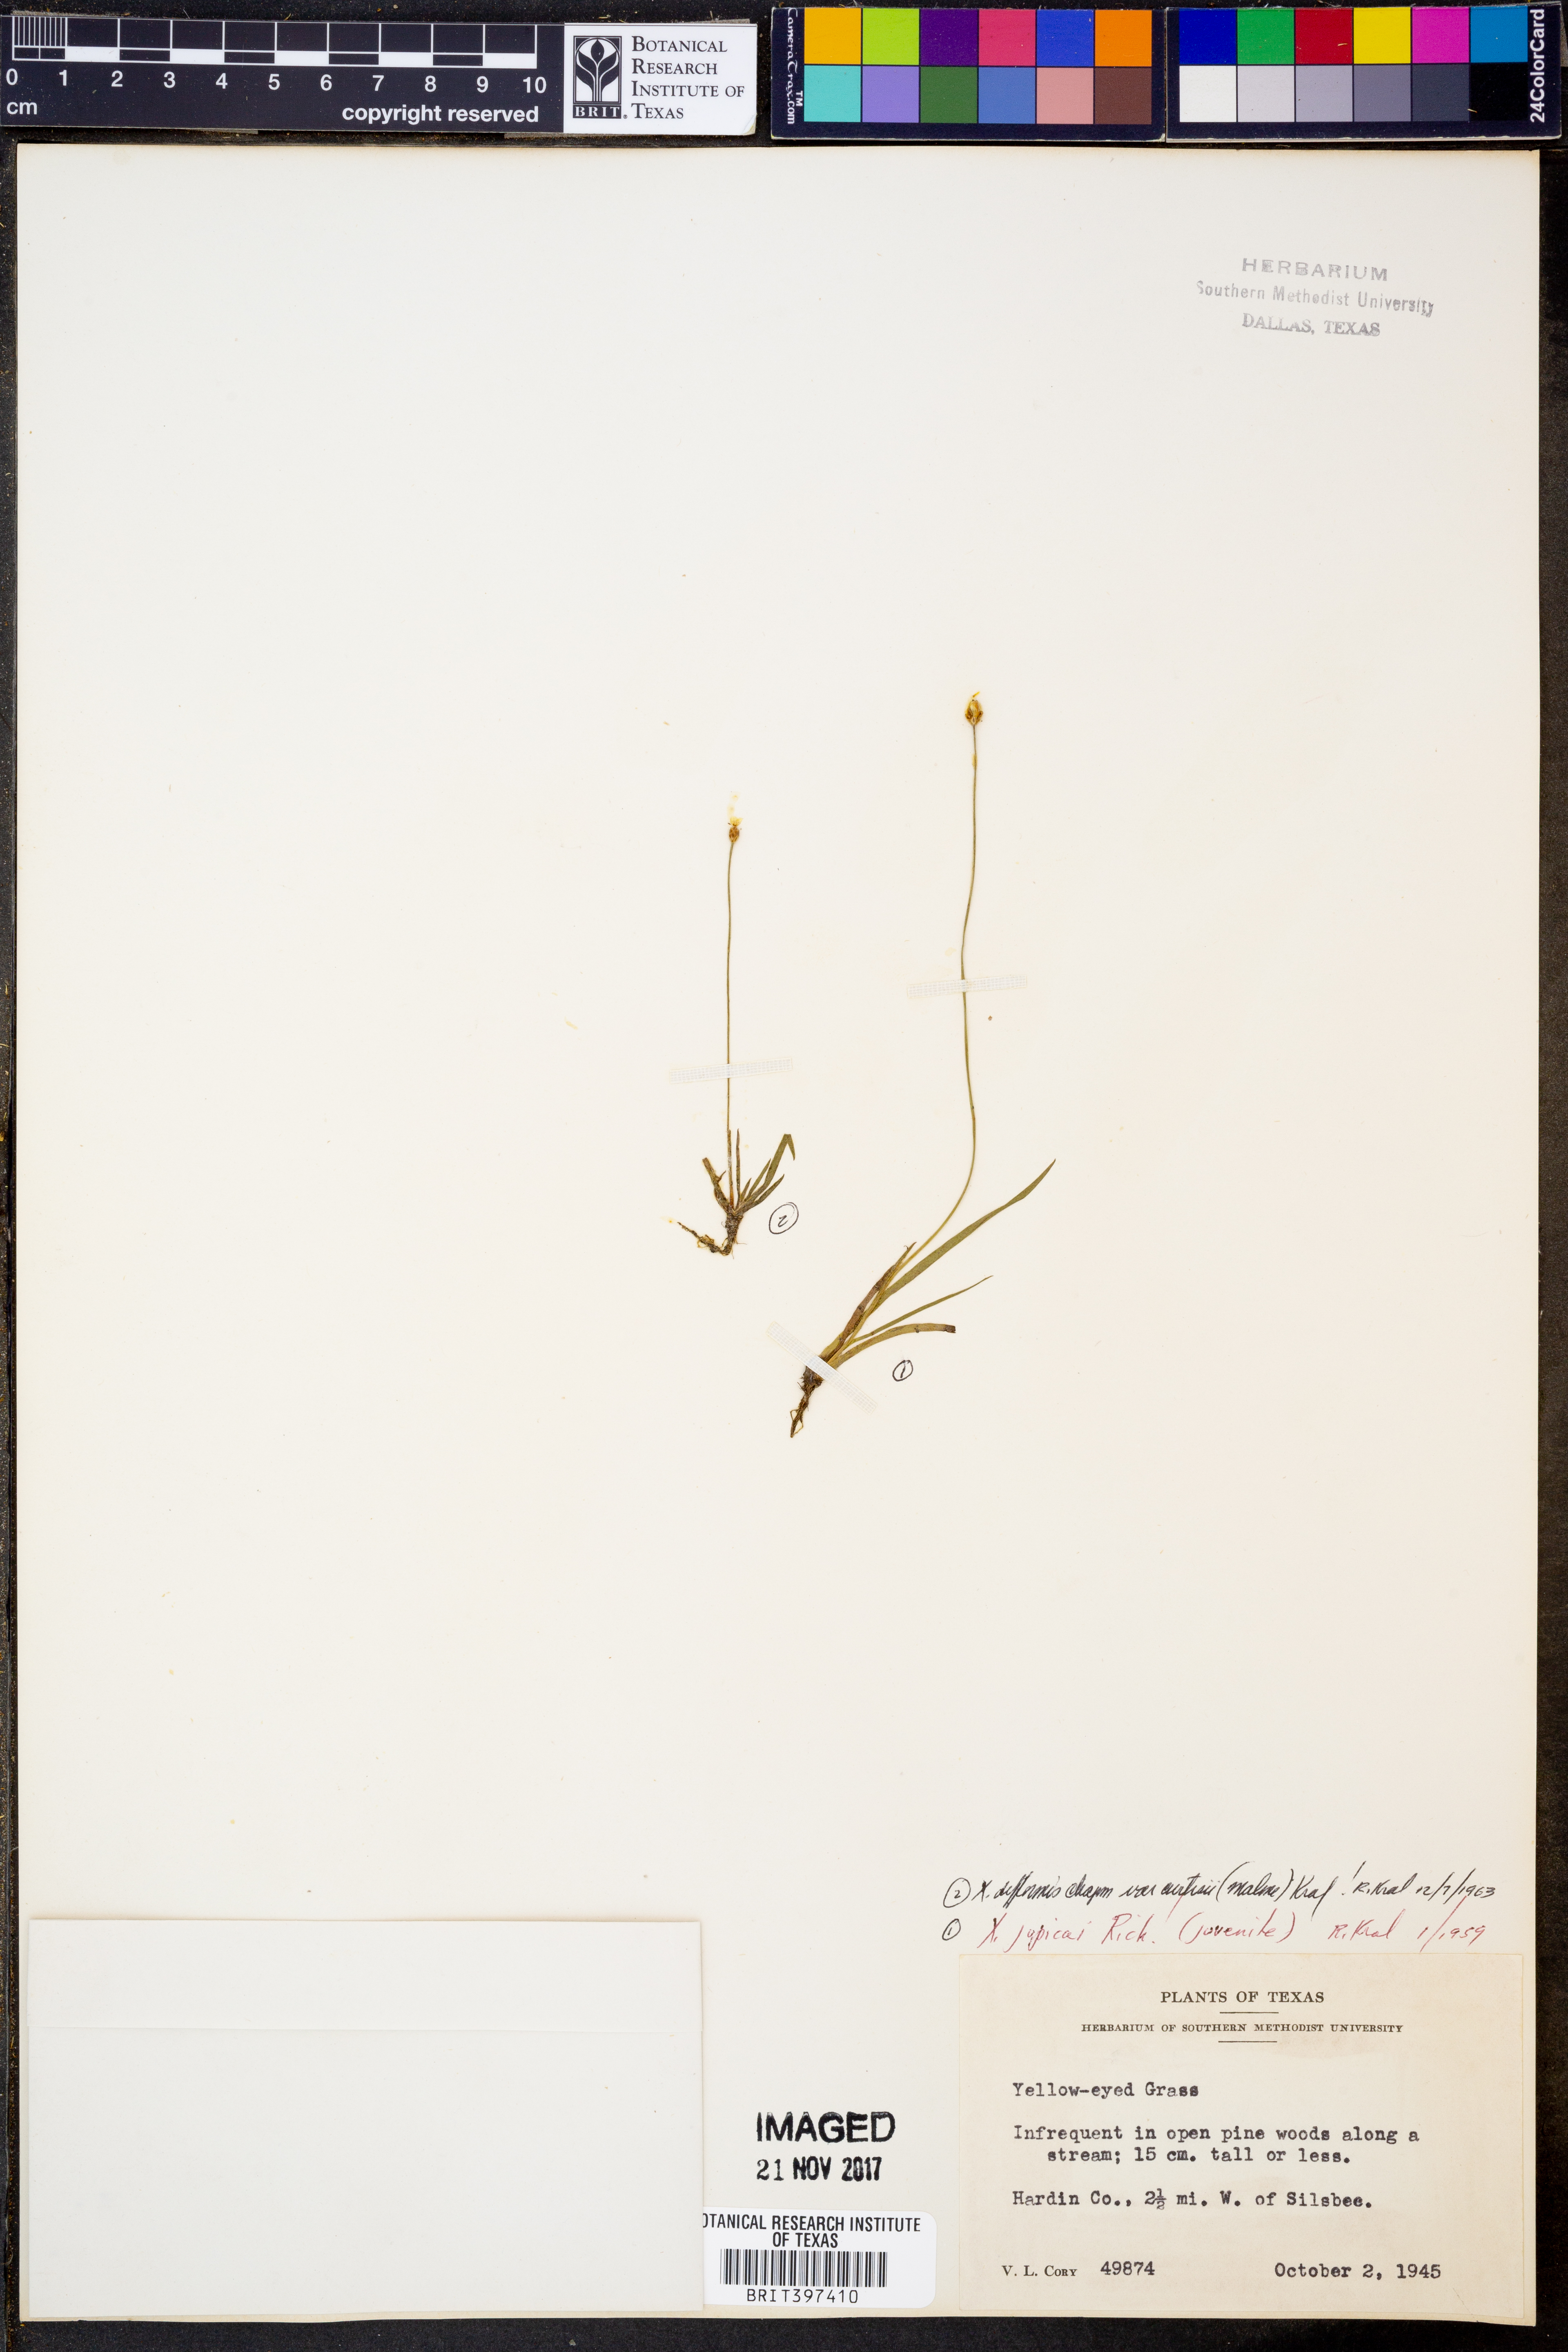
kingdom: Plantae
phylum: Tracheophyta
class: Liliopsida
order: Poales
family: Xyridaceae
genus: Xyris
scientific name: Xyris difformis
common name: Bog yellow-eyed-grass
